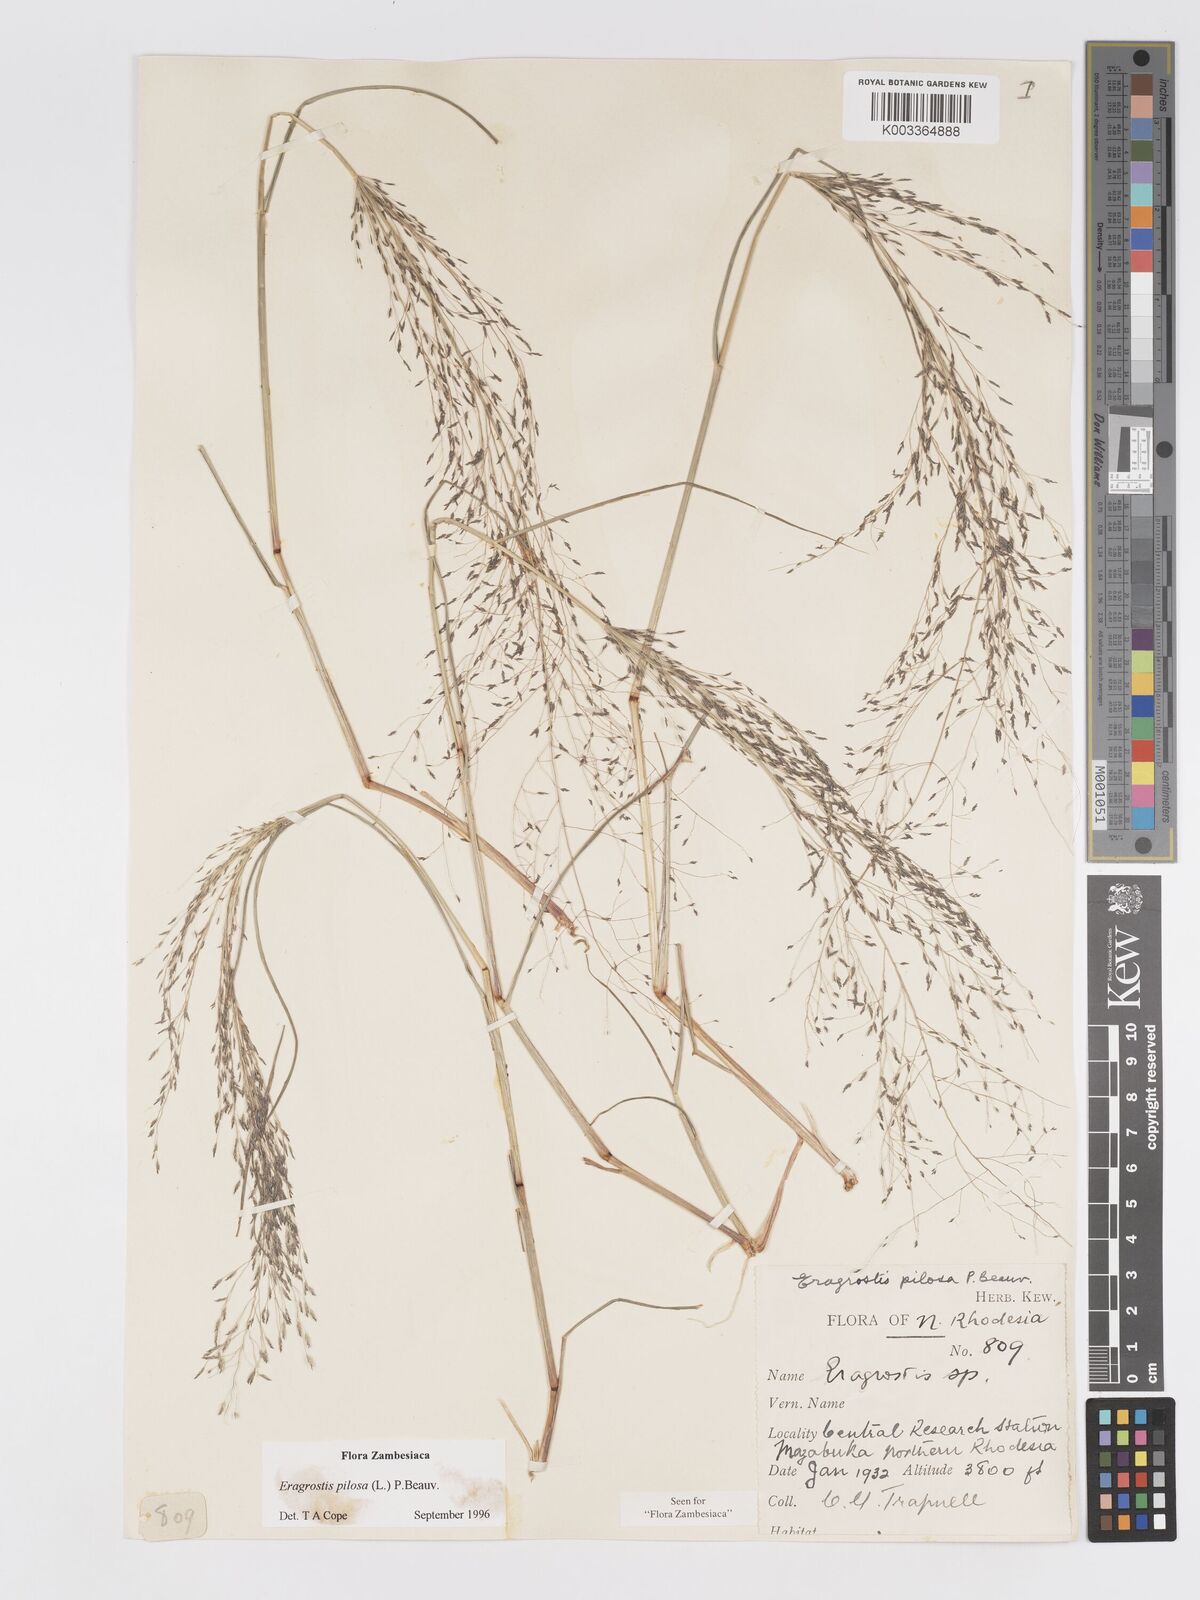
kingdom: Plantae
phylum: Tracheophyta
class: Liliopsida
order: Poales
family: Poaceae
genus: Eragrostis
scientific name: Eragrostis pilosa
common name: Indian lovegrass
